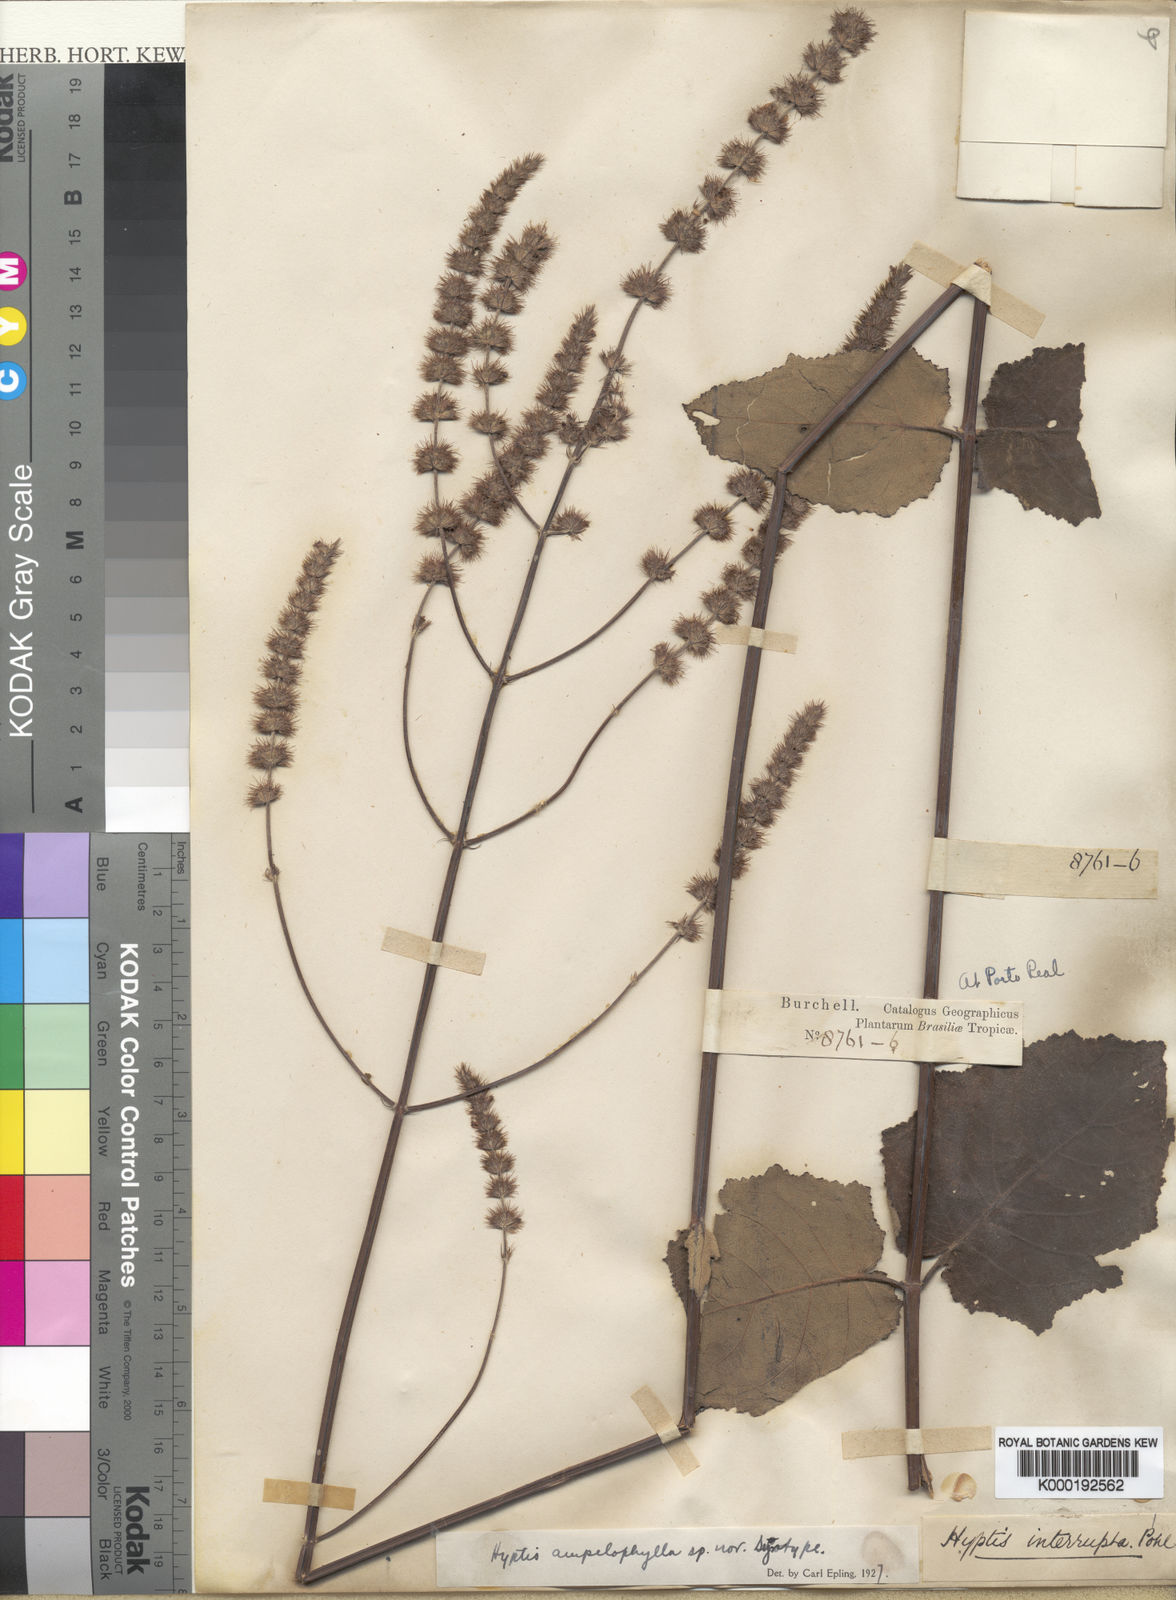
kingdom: Plantae
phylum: Tracheophyta
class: Magnoliopsida
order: Lamiales
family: Lamiaceae
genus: Gymneia
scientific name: Gymneia ampelophylla
